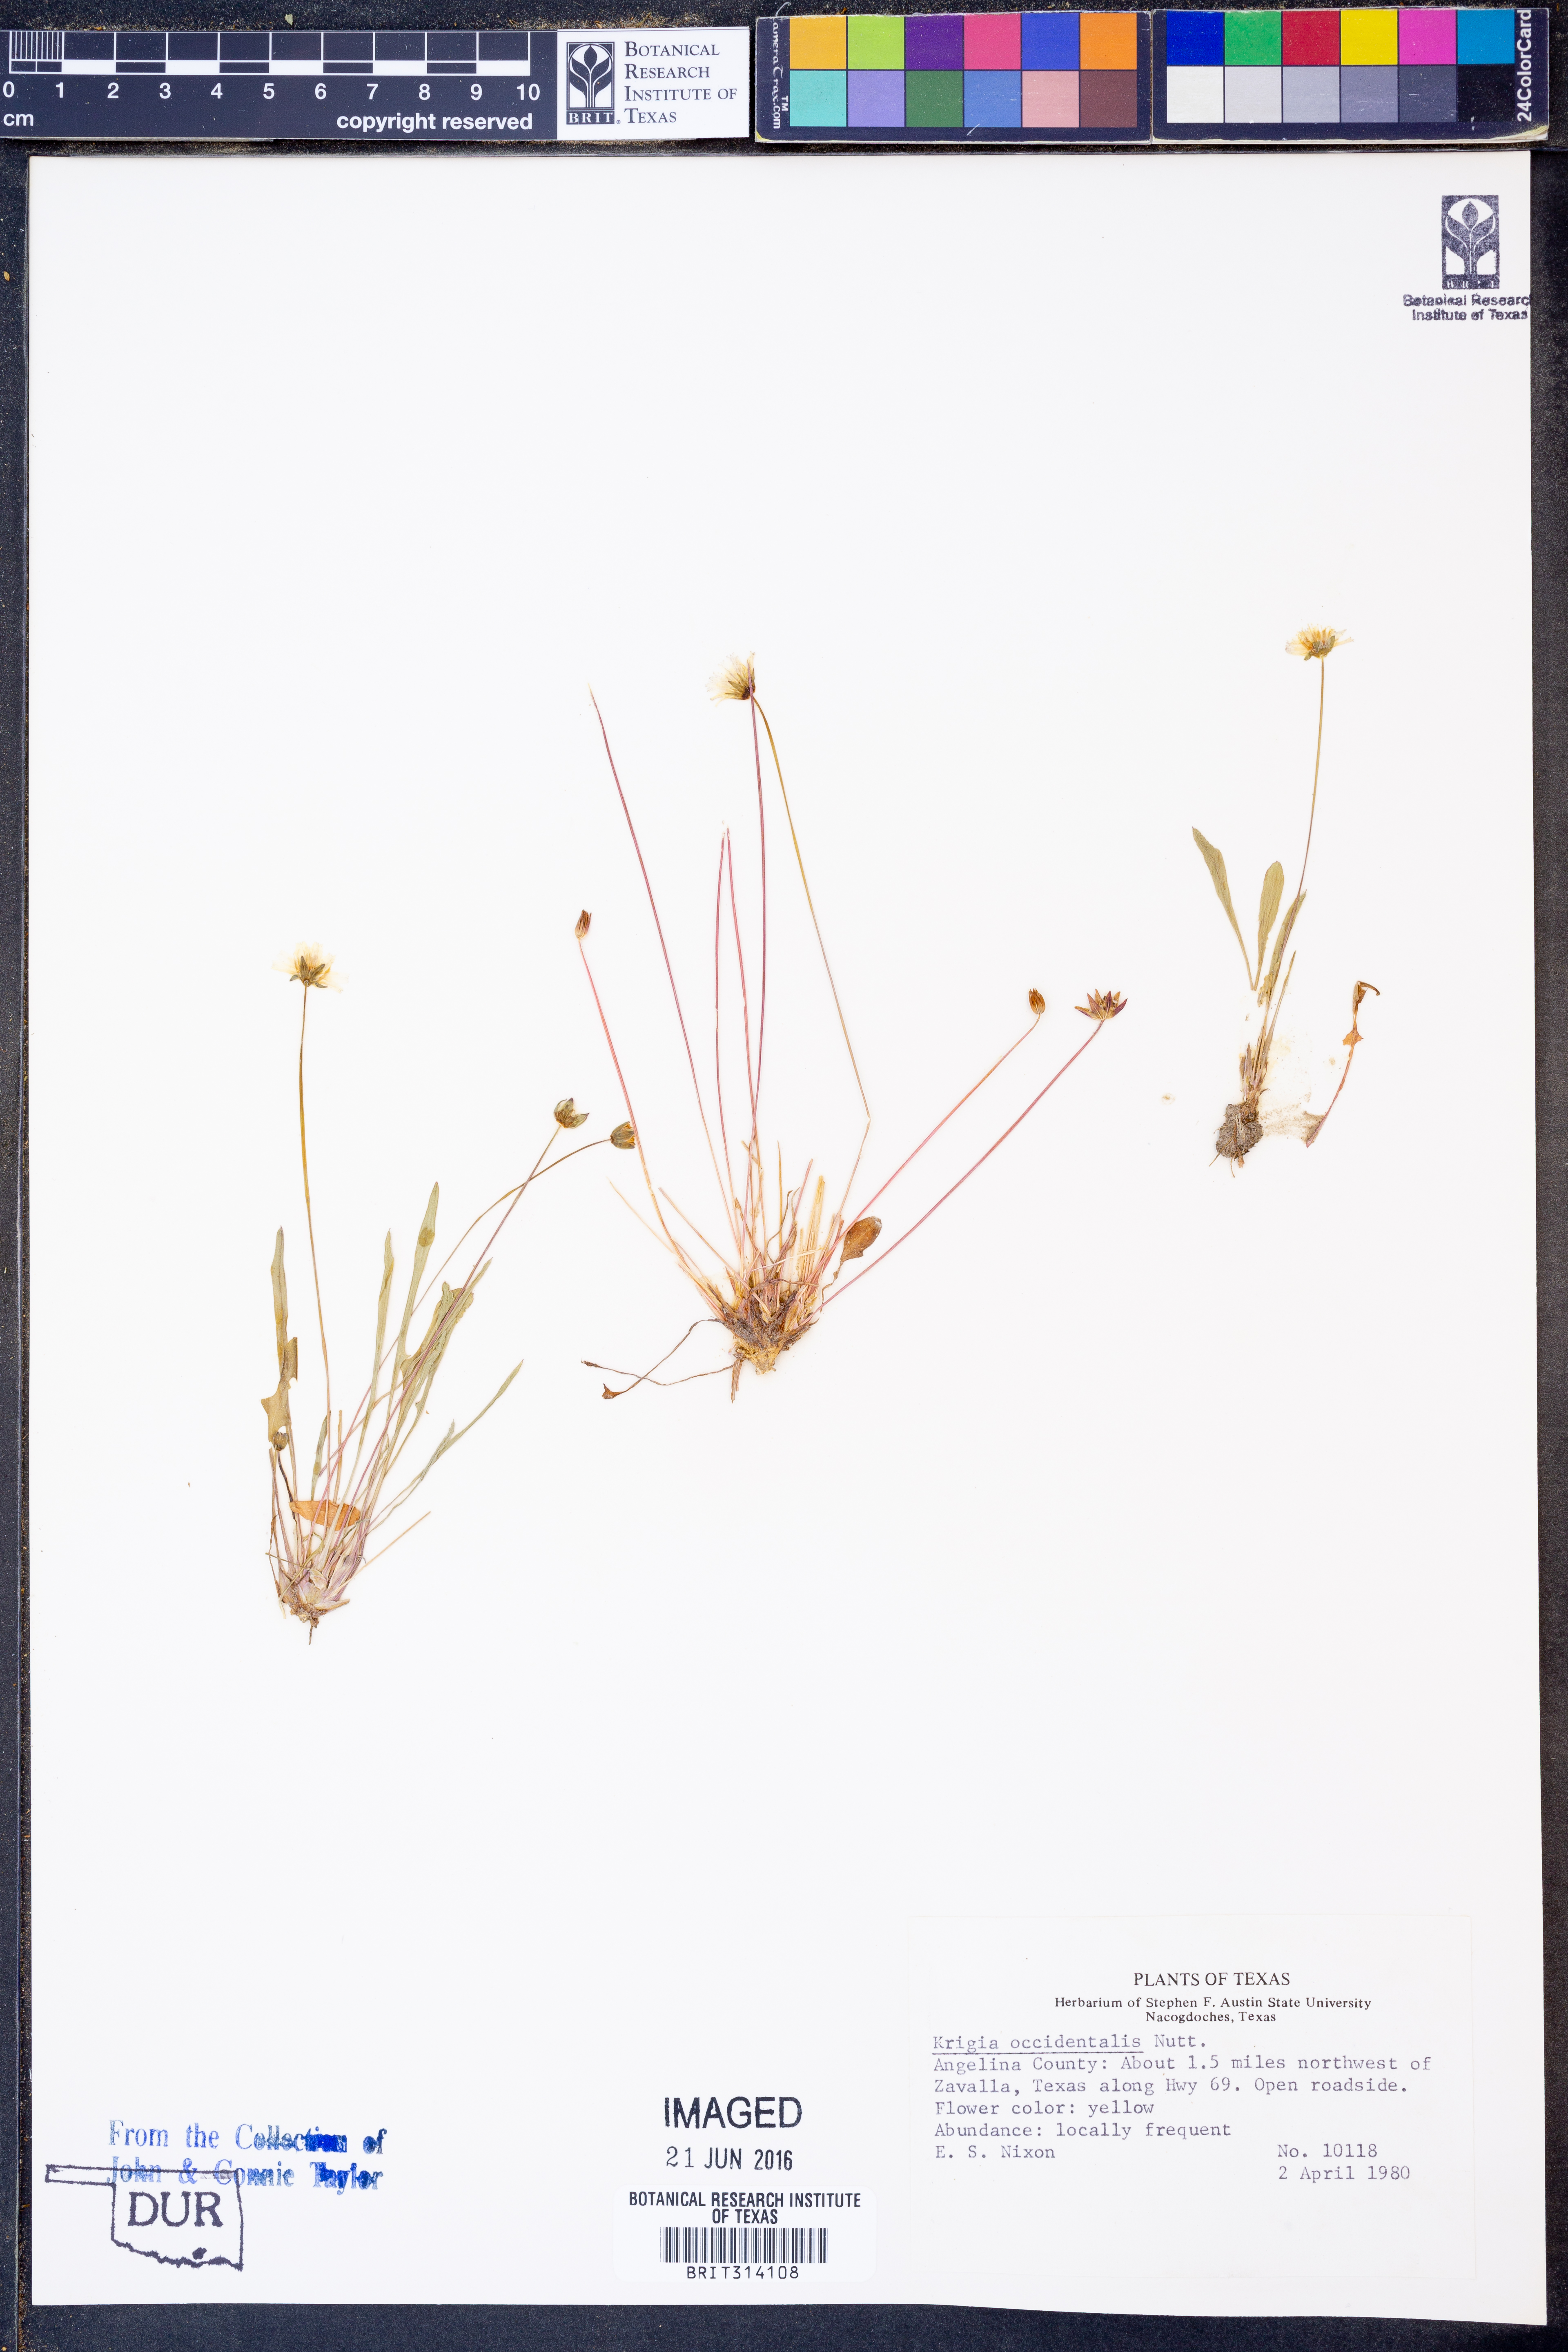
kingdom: Plantae
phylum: Tracheophyta
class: Magnoliopsida
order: Asterales
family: Asteraceae
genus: Krigia
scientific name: Krigia occidentalis
